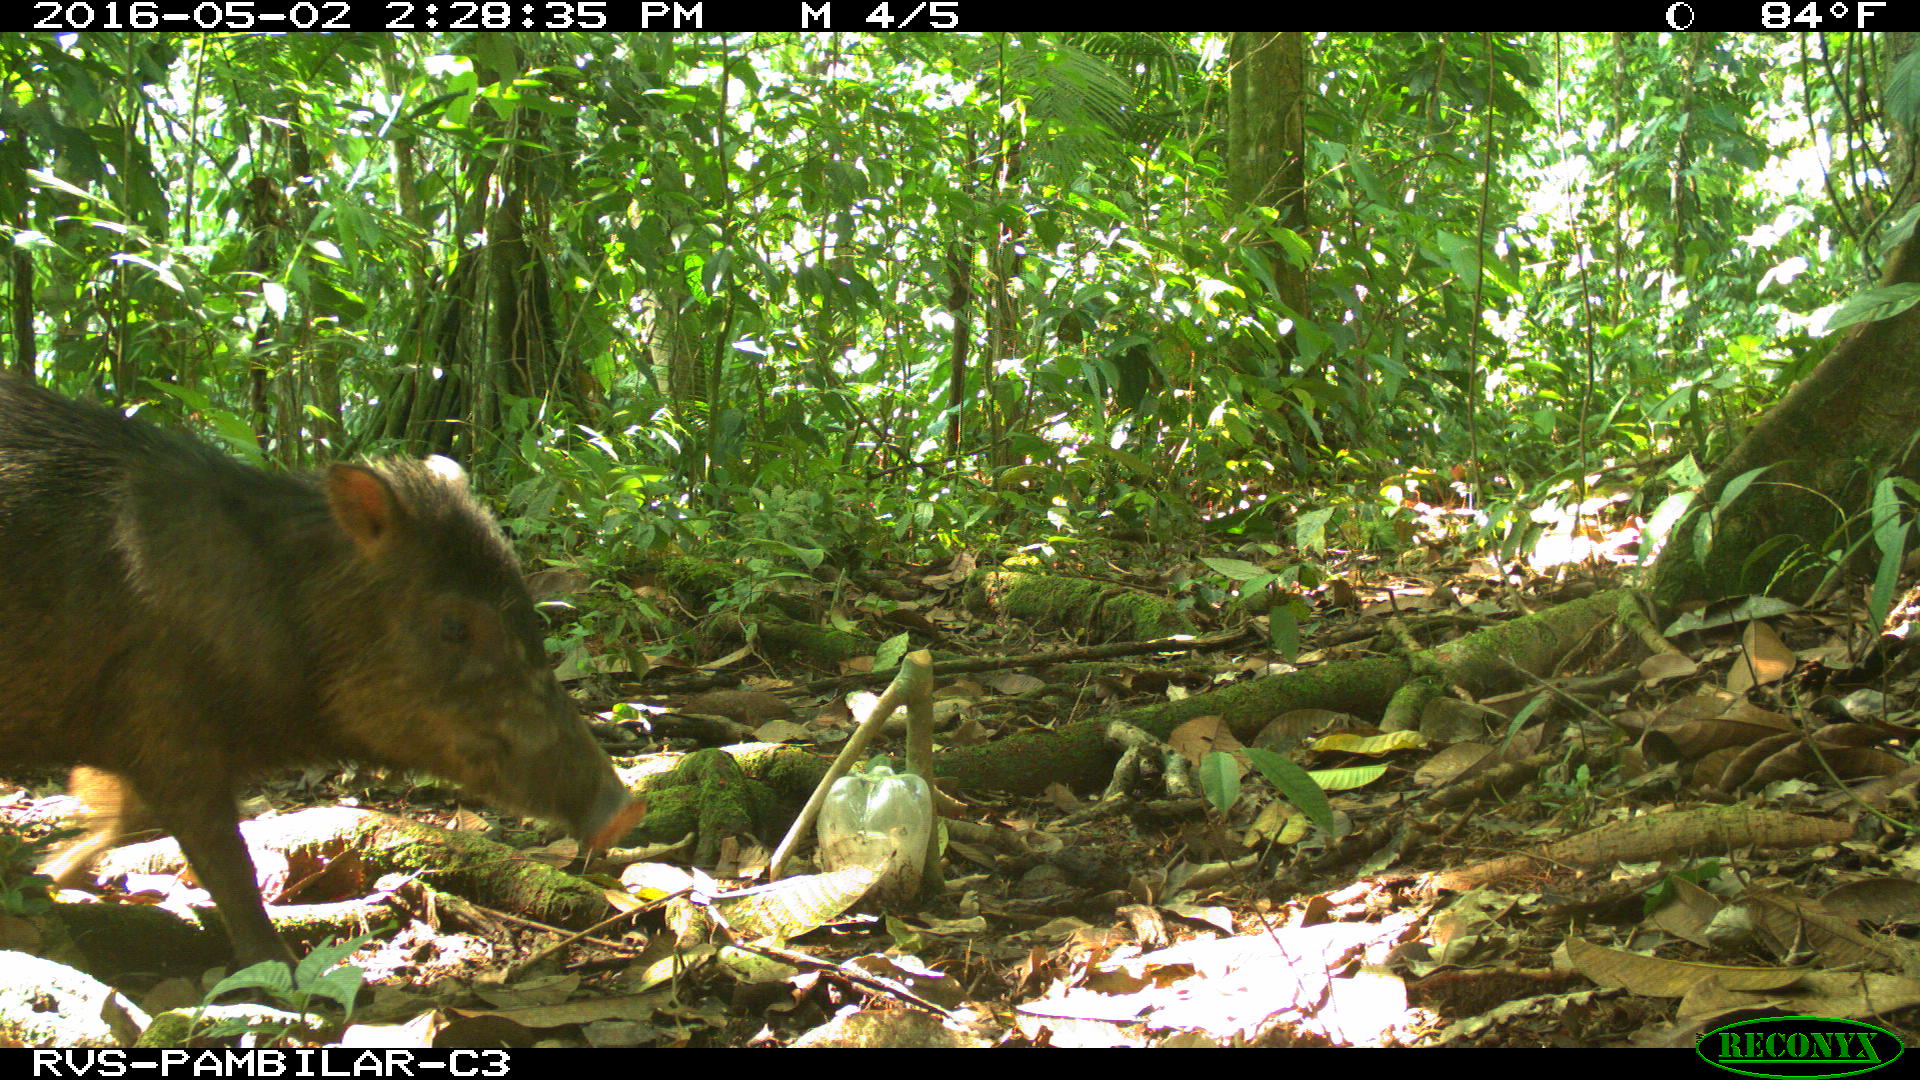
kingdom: Animalia
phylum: Chordata
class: Mammalia
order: Artiodactyla
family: Tayassuidae
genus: Tayassu
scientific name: Tayassu pecari
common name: White-lipped peccary
